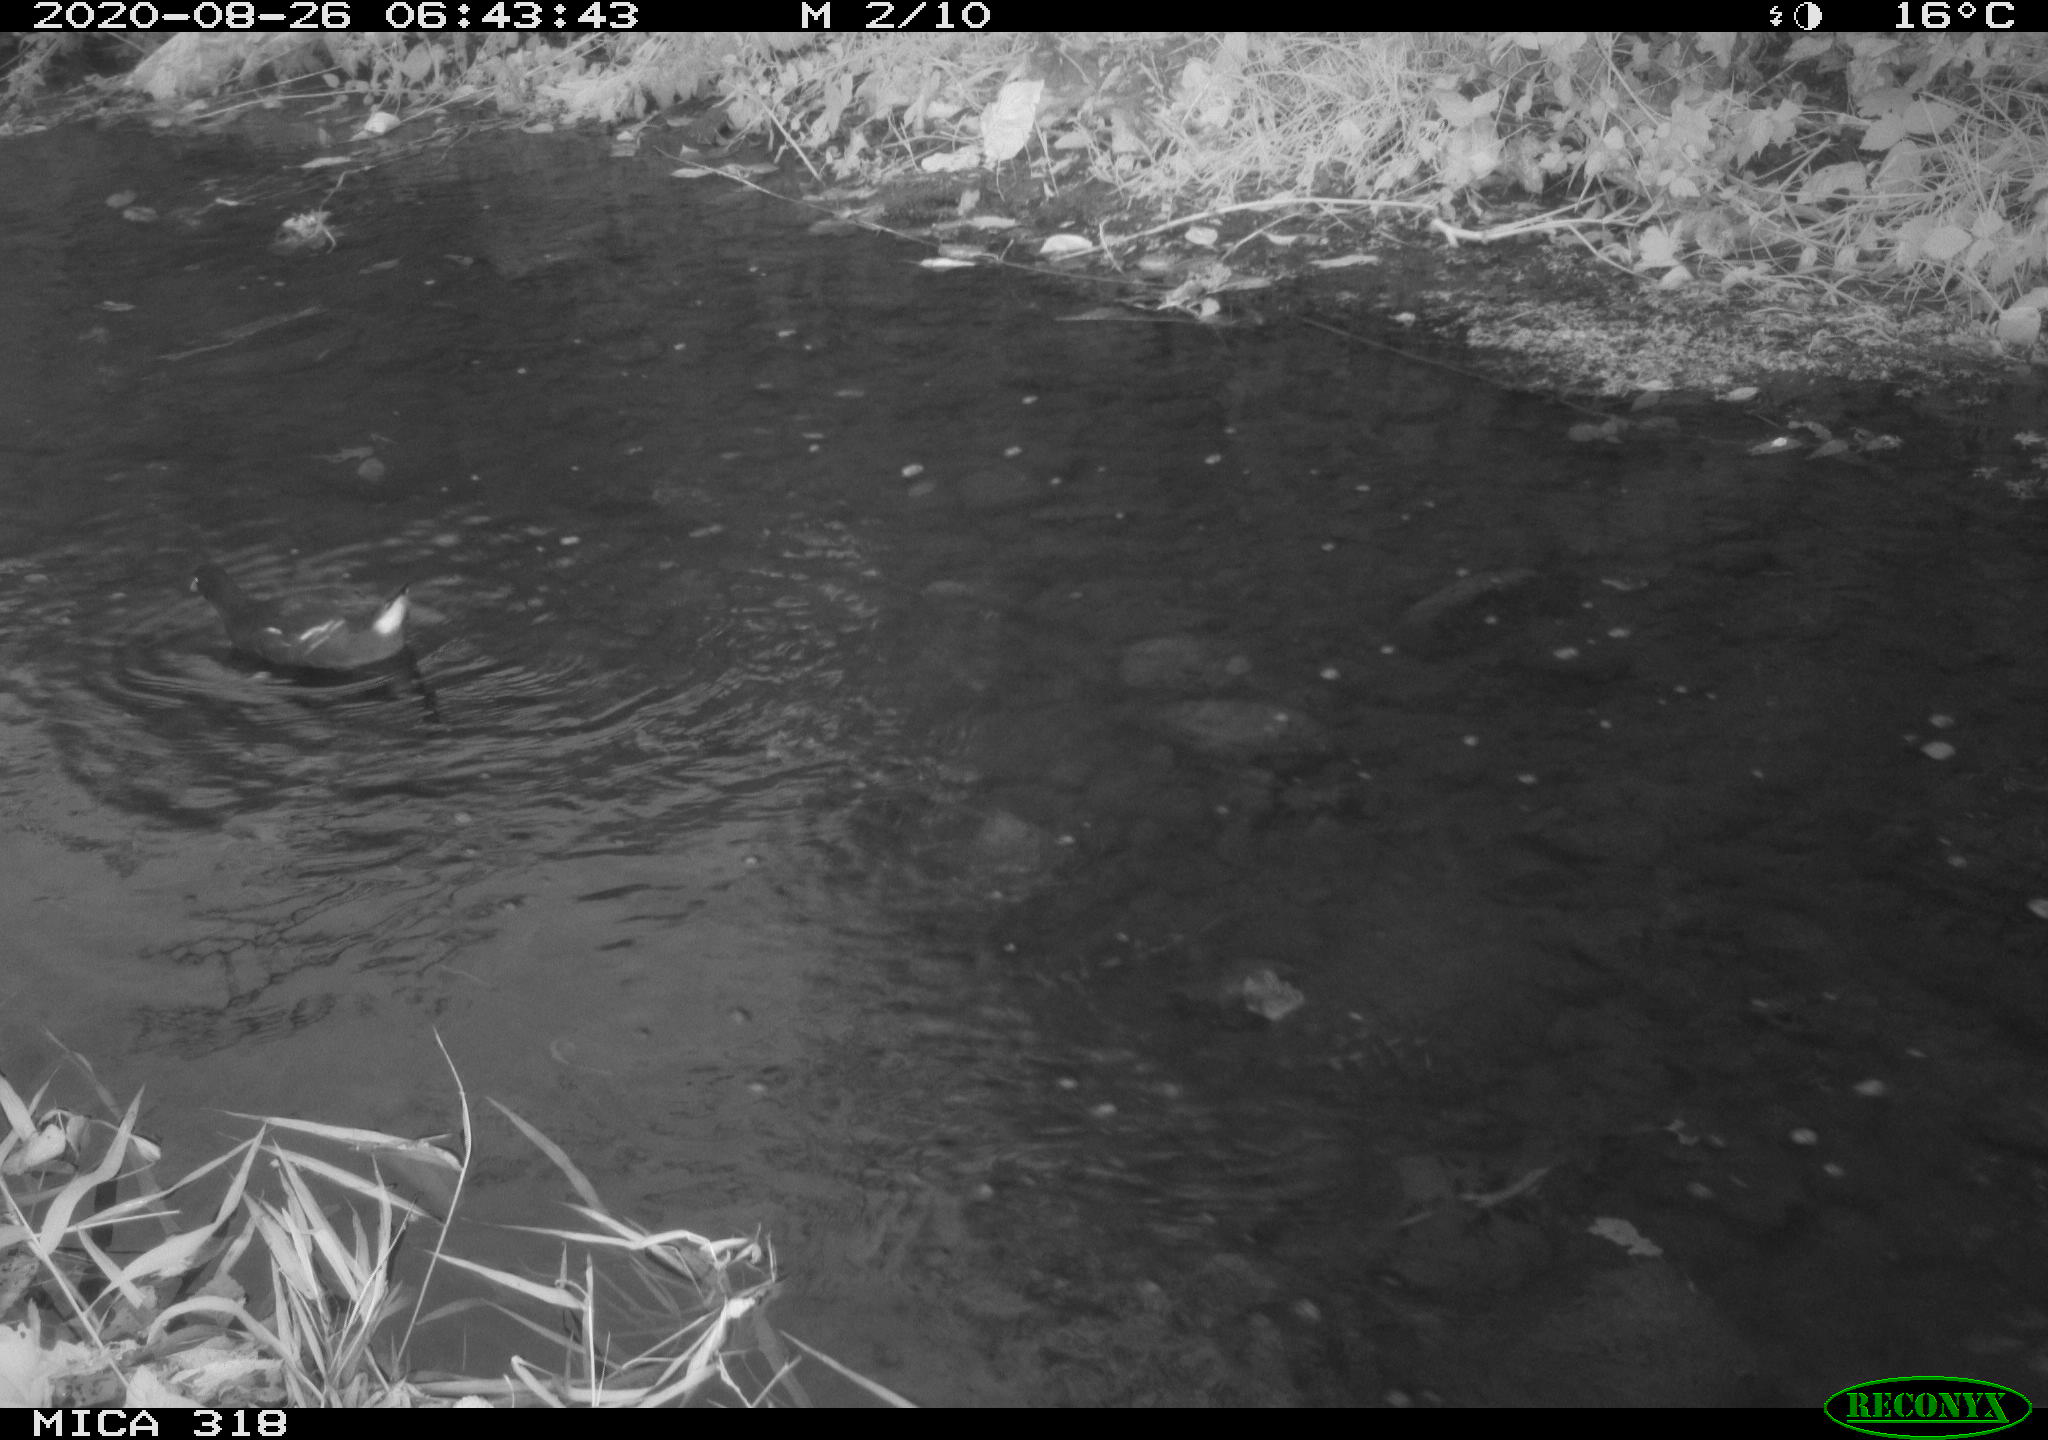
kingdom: Animalia
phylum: Chordata
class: Aves
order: Gruiformes
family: Rallidae
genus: Gallinula
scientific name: Gallinula chloropus
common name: Common moorhen
